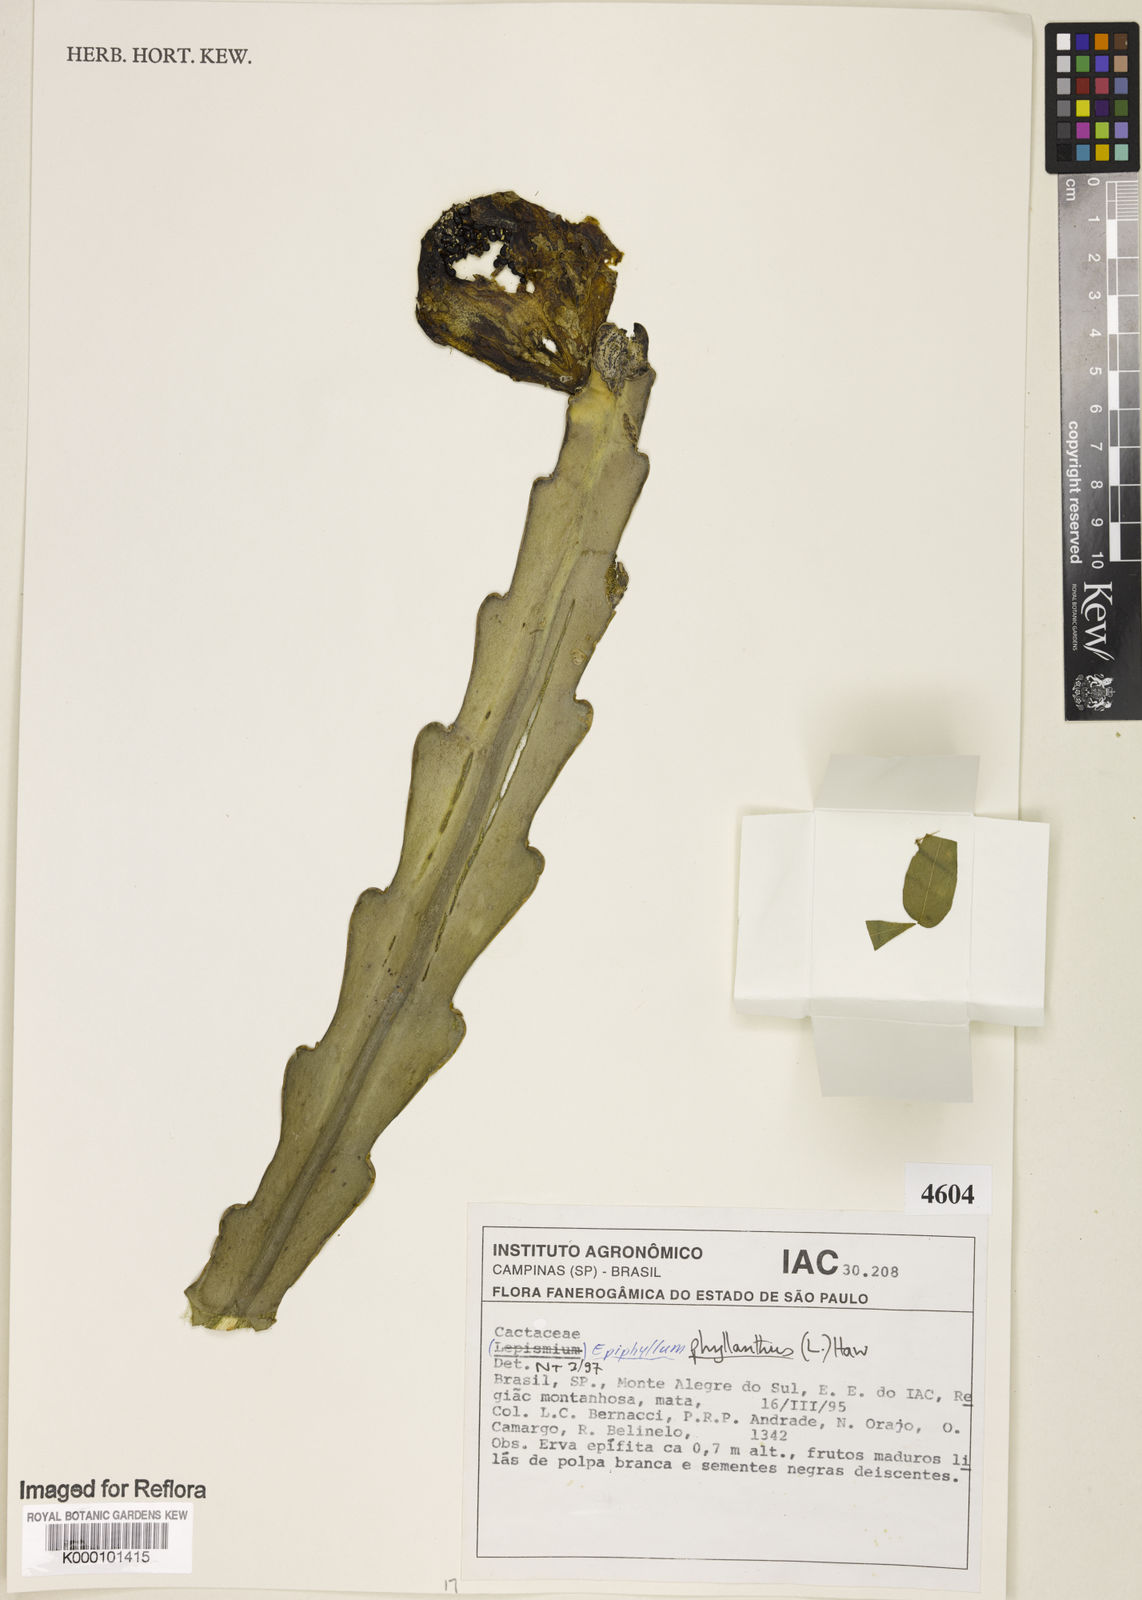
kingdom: Plantae
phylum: Tracheophyta
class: Magnoliopsida
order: Caryophyllales
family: Cactaceae
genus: Epiphyllum
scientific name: Epiphyllum phyllanthus
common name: Climbing cactus
